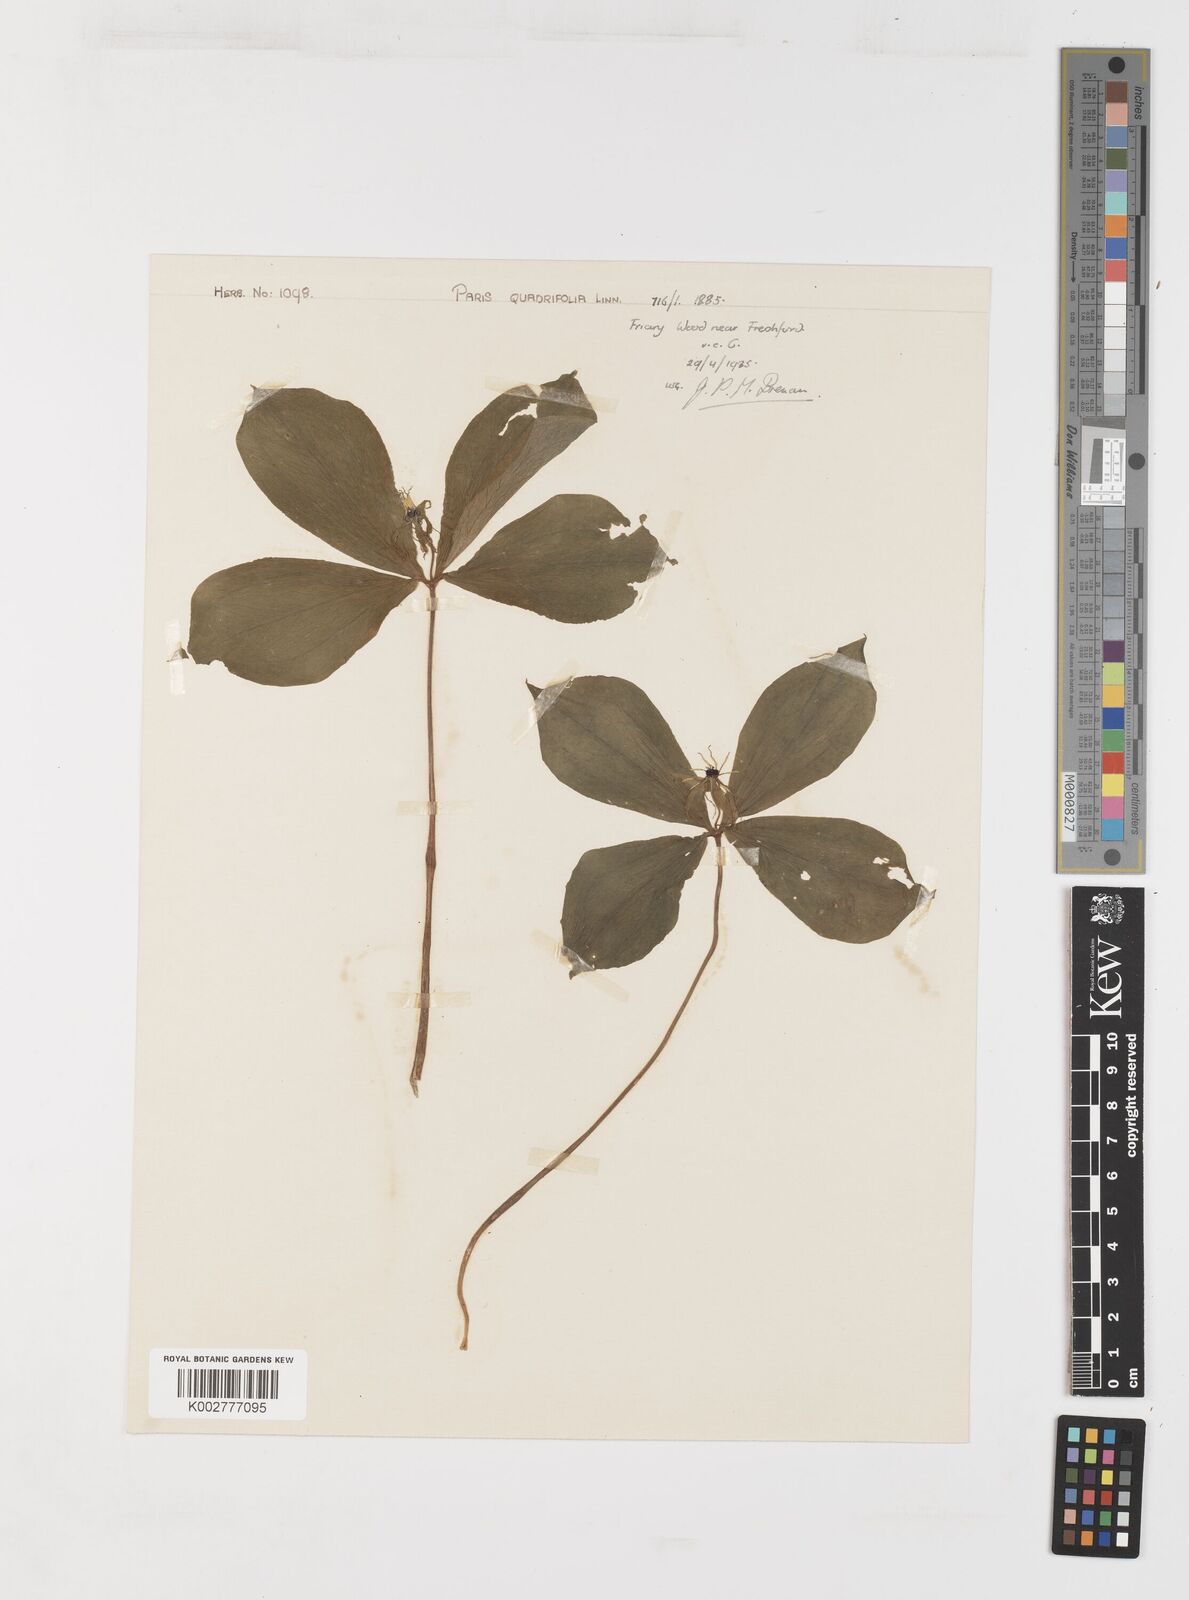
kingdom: Plantae
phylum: Tracheophyta
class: Liliopsida
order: Liliales
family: Melanthiaceae
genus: Paris
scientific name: Paris quadrifolia
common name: Herb-paris
